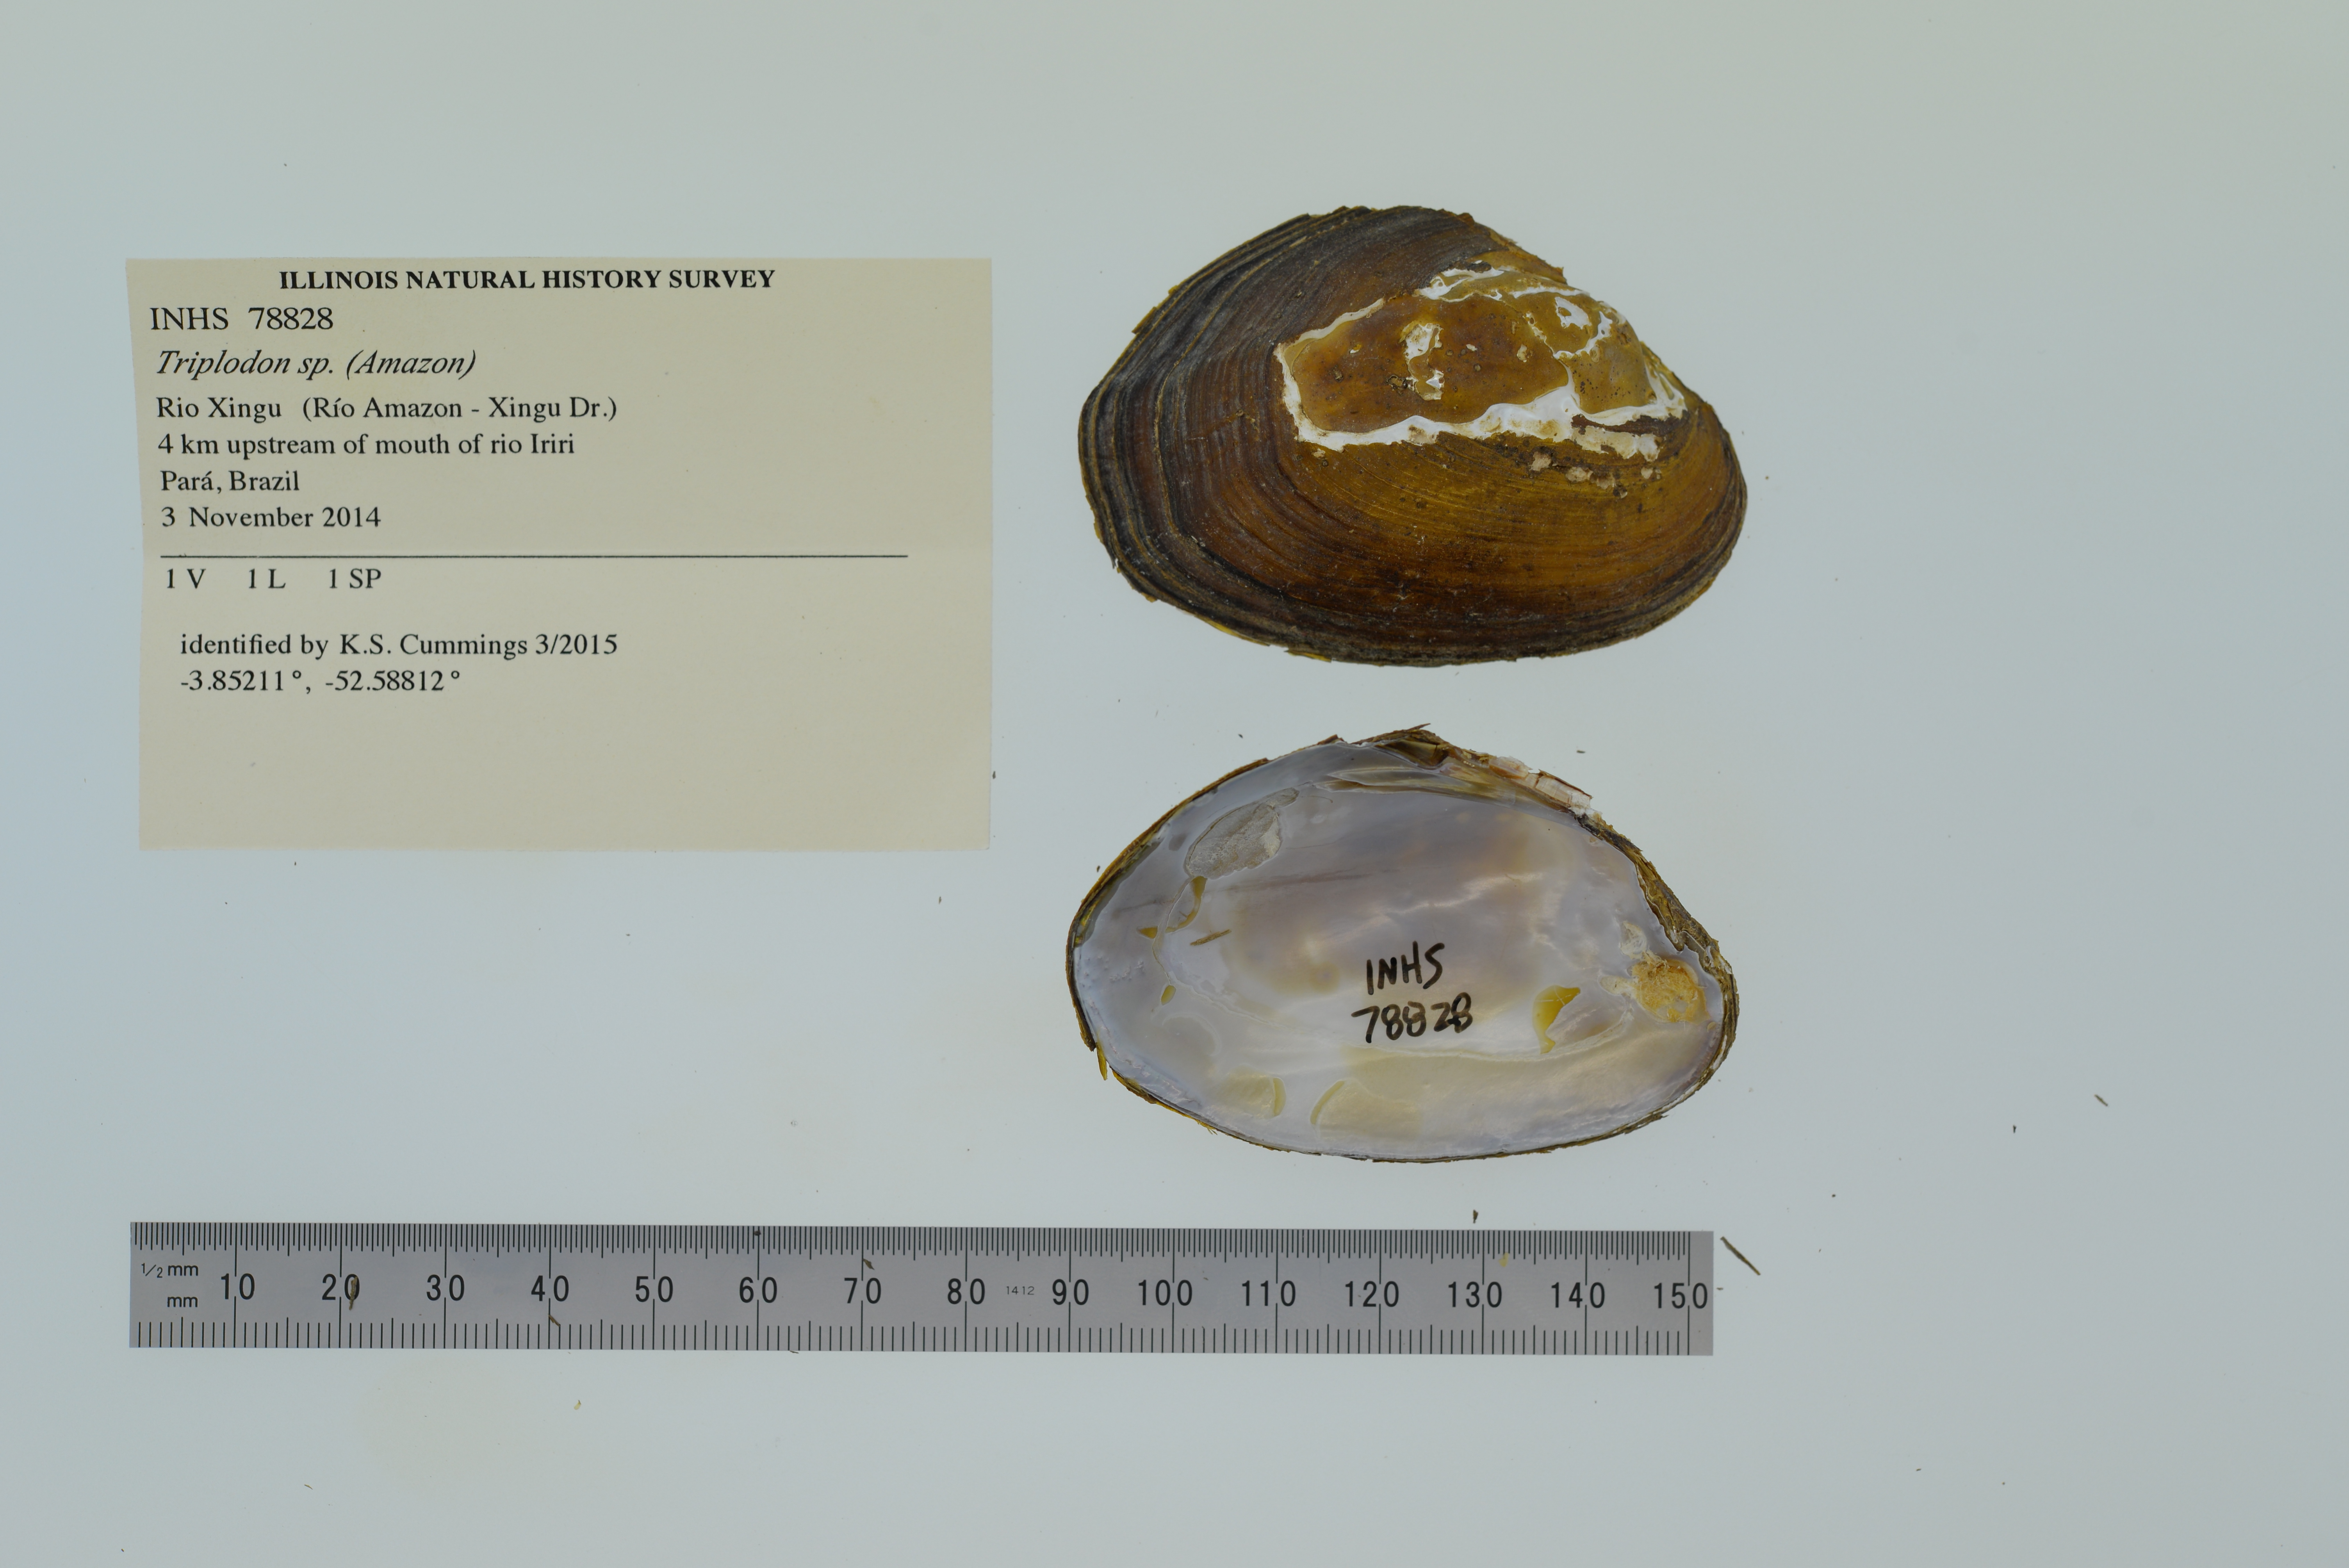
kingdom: Animalia
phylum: Mollusca
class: Bivalvia
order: Unionida
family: Hyriidae
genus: Diplodon
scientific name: Diplodon
